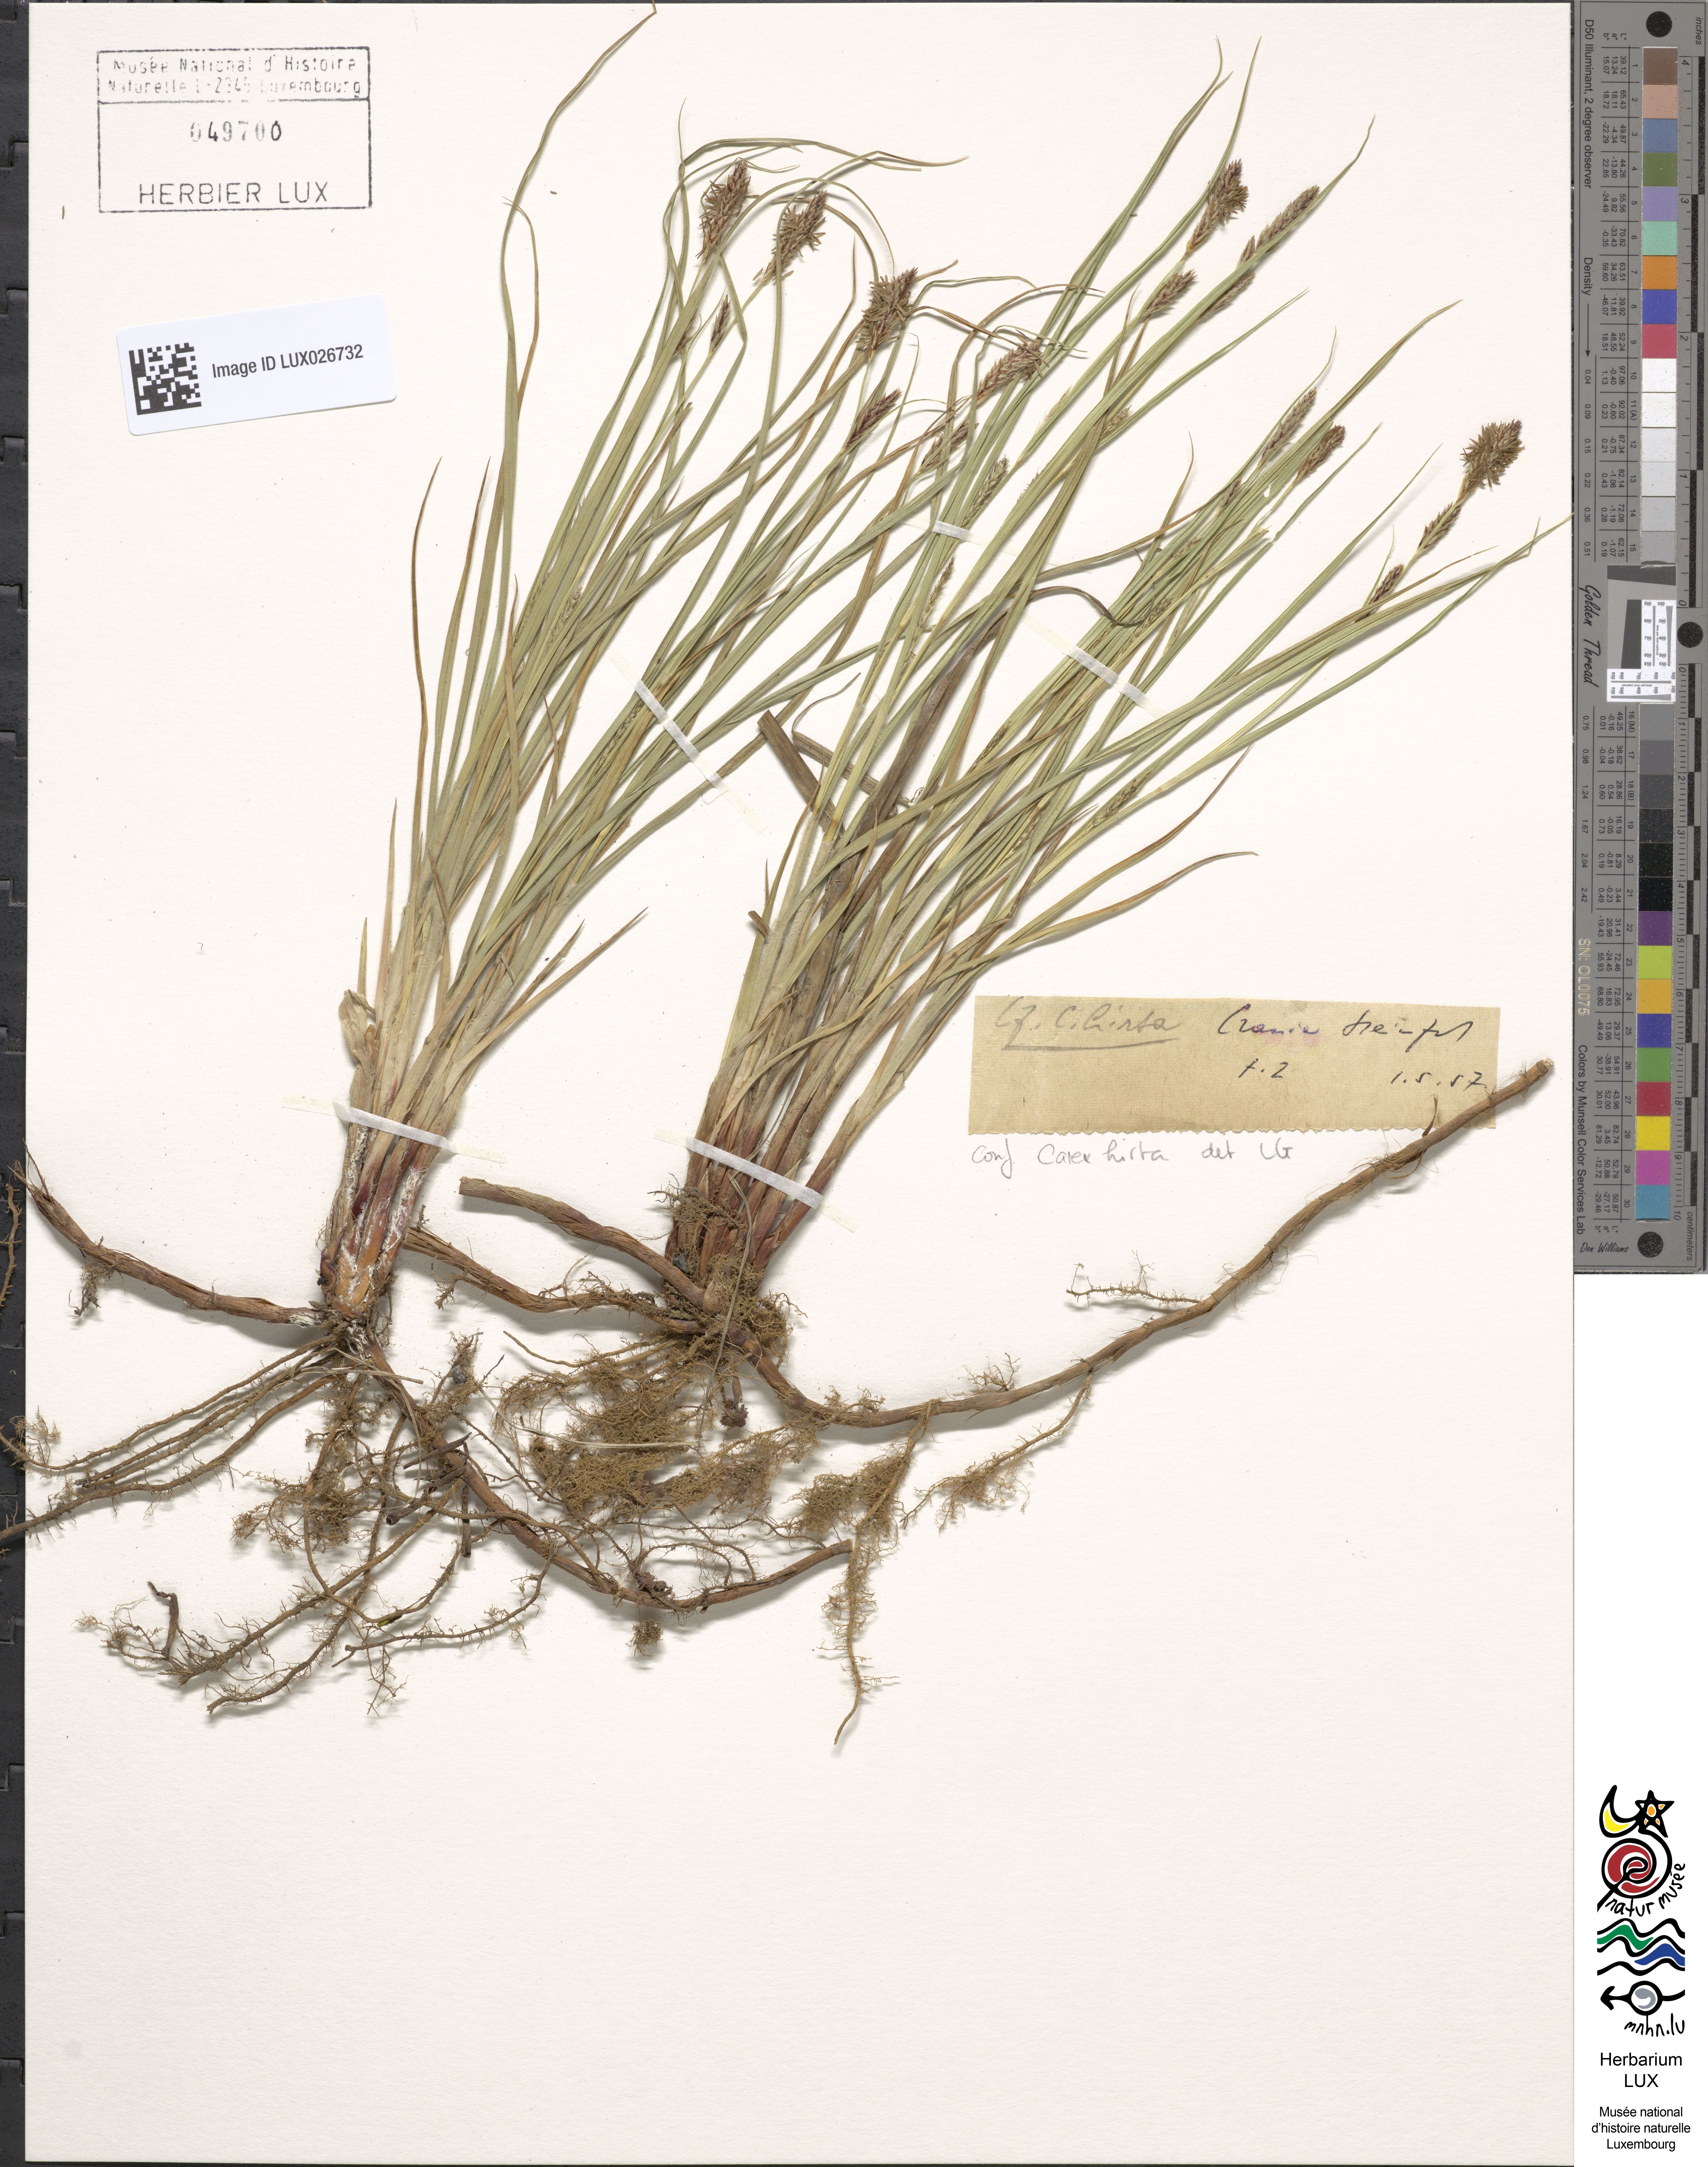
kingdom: Plantae
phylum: Tracheophyta
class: Liliopsida
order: Poales
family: Cyperaceae
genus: Carex
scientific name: Carex hirta
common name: Hairy sedge
